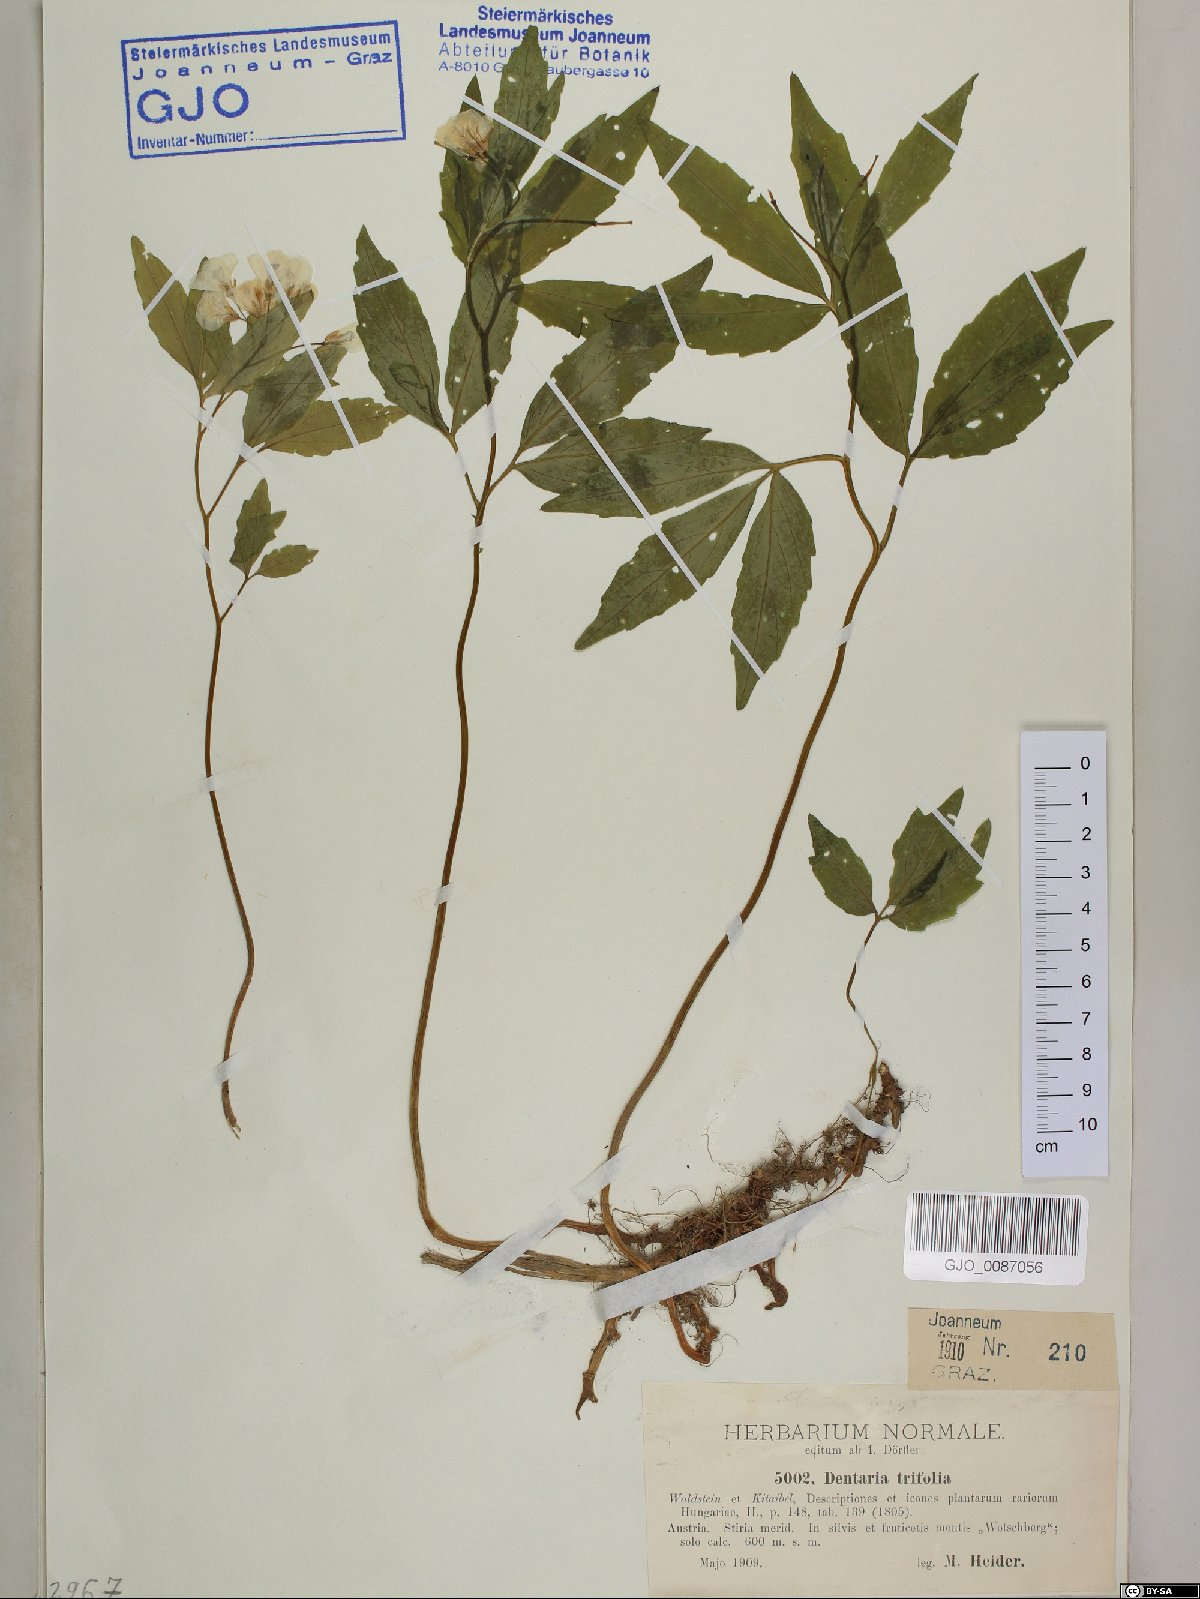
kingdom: Plantae
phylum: Tracheophyta
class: Magnoliopsida
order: Brassicales
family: Brassicaceae
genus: Cardamine
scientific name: Cardamine waldsteinii
